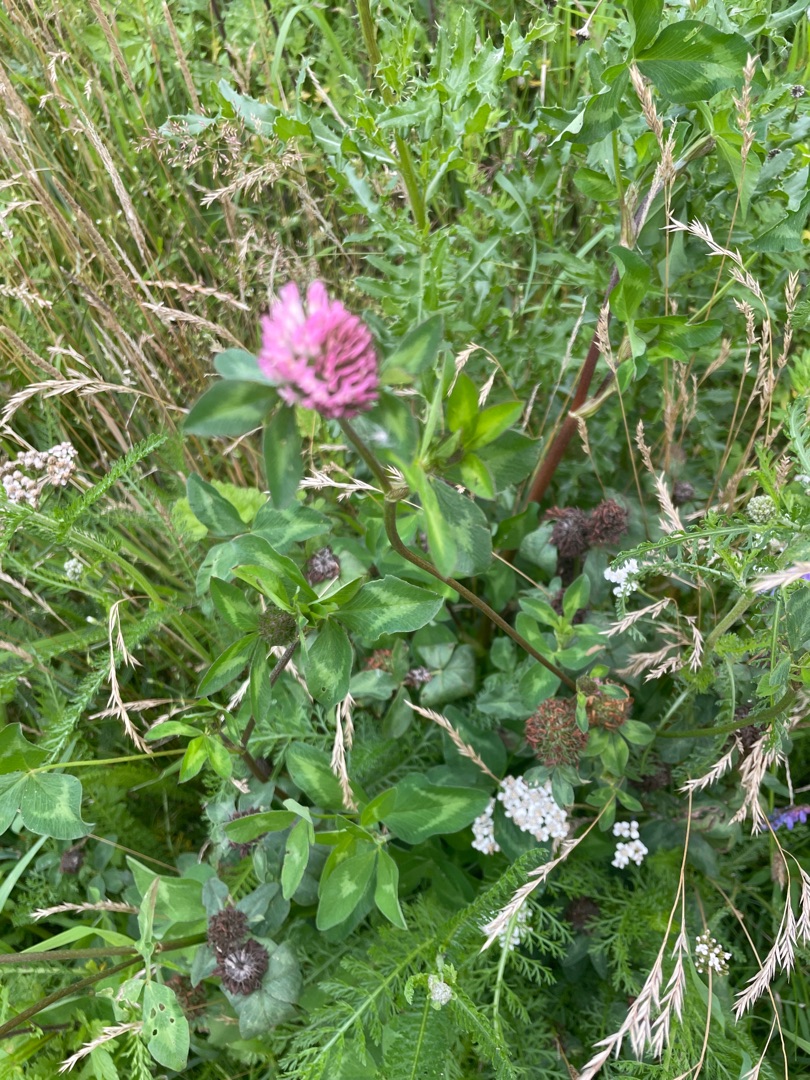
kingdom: Plantae
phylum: Tracheophyta
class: Magnoliopsida
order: Fabales
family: Fabaceae
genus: Trifolium
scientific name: Trifolium pratense
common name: Rød-kløver
